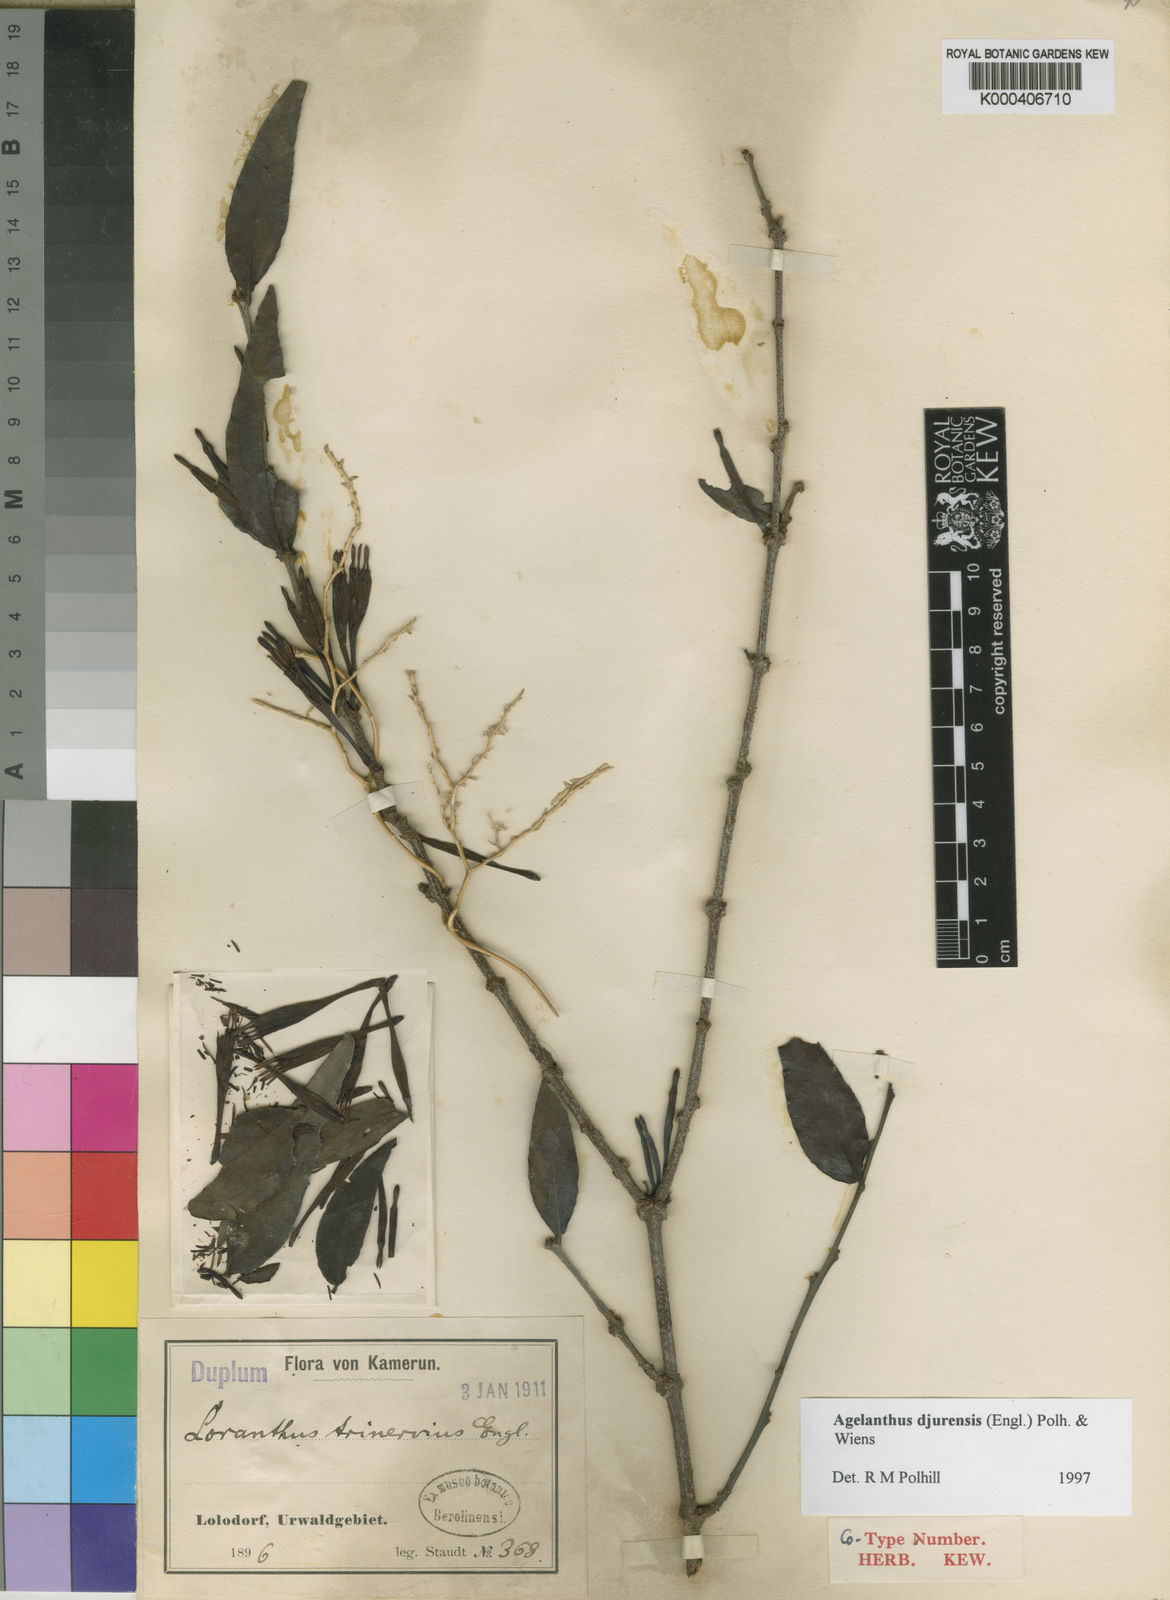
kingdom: Plantae
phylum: Tracheophyta
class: Magnoliopsida
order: Santalales
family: Loranthaceae
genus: Agelanthus
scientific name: Agelanthus djurensis
